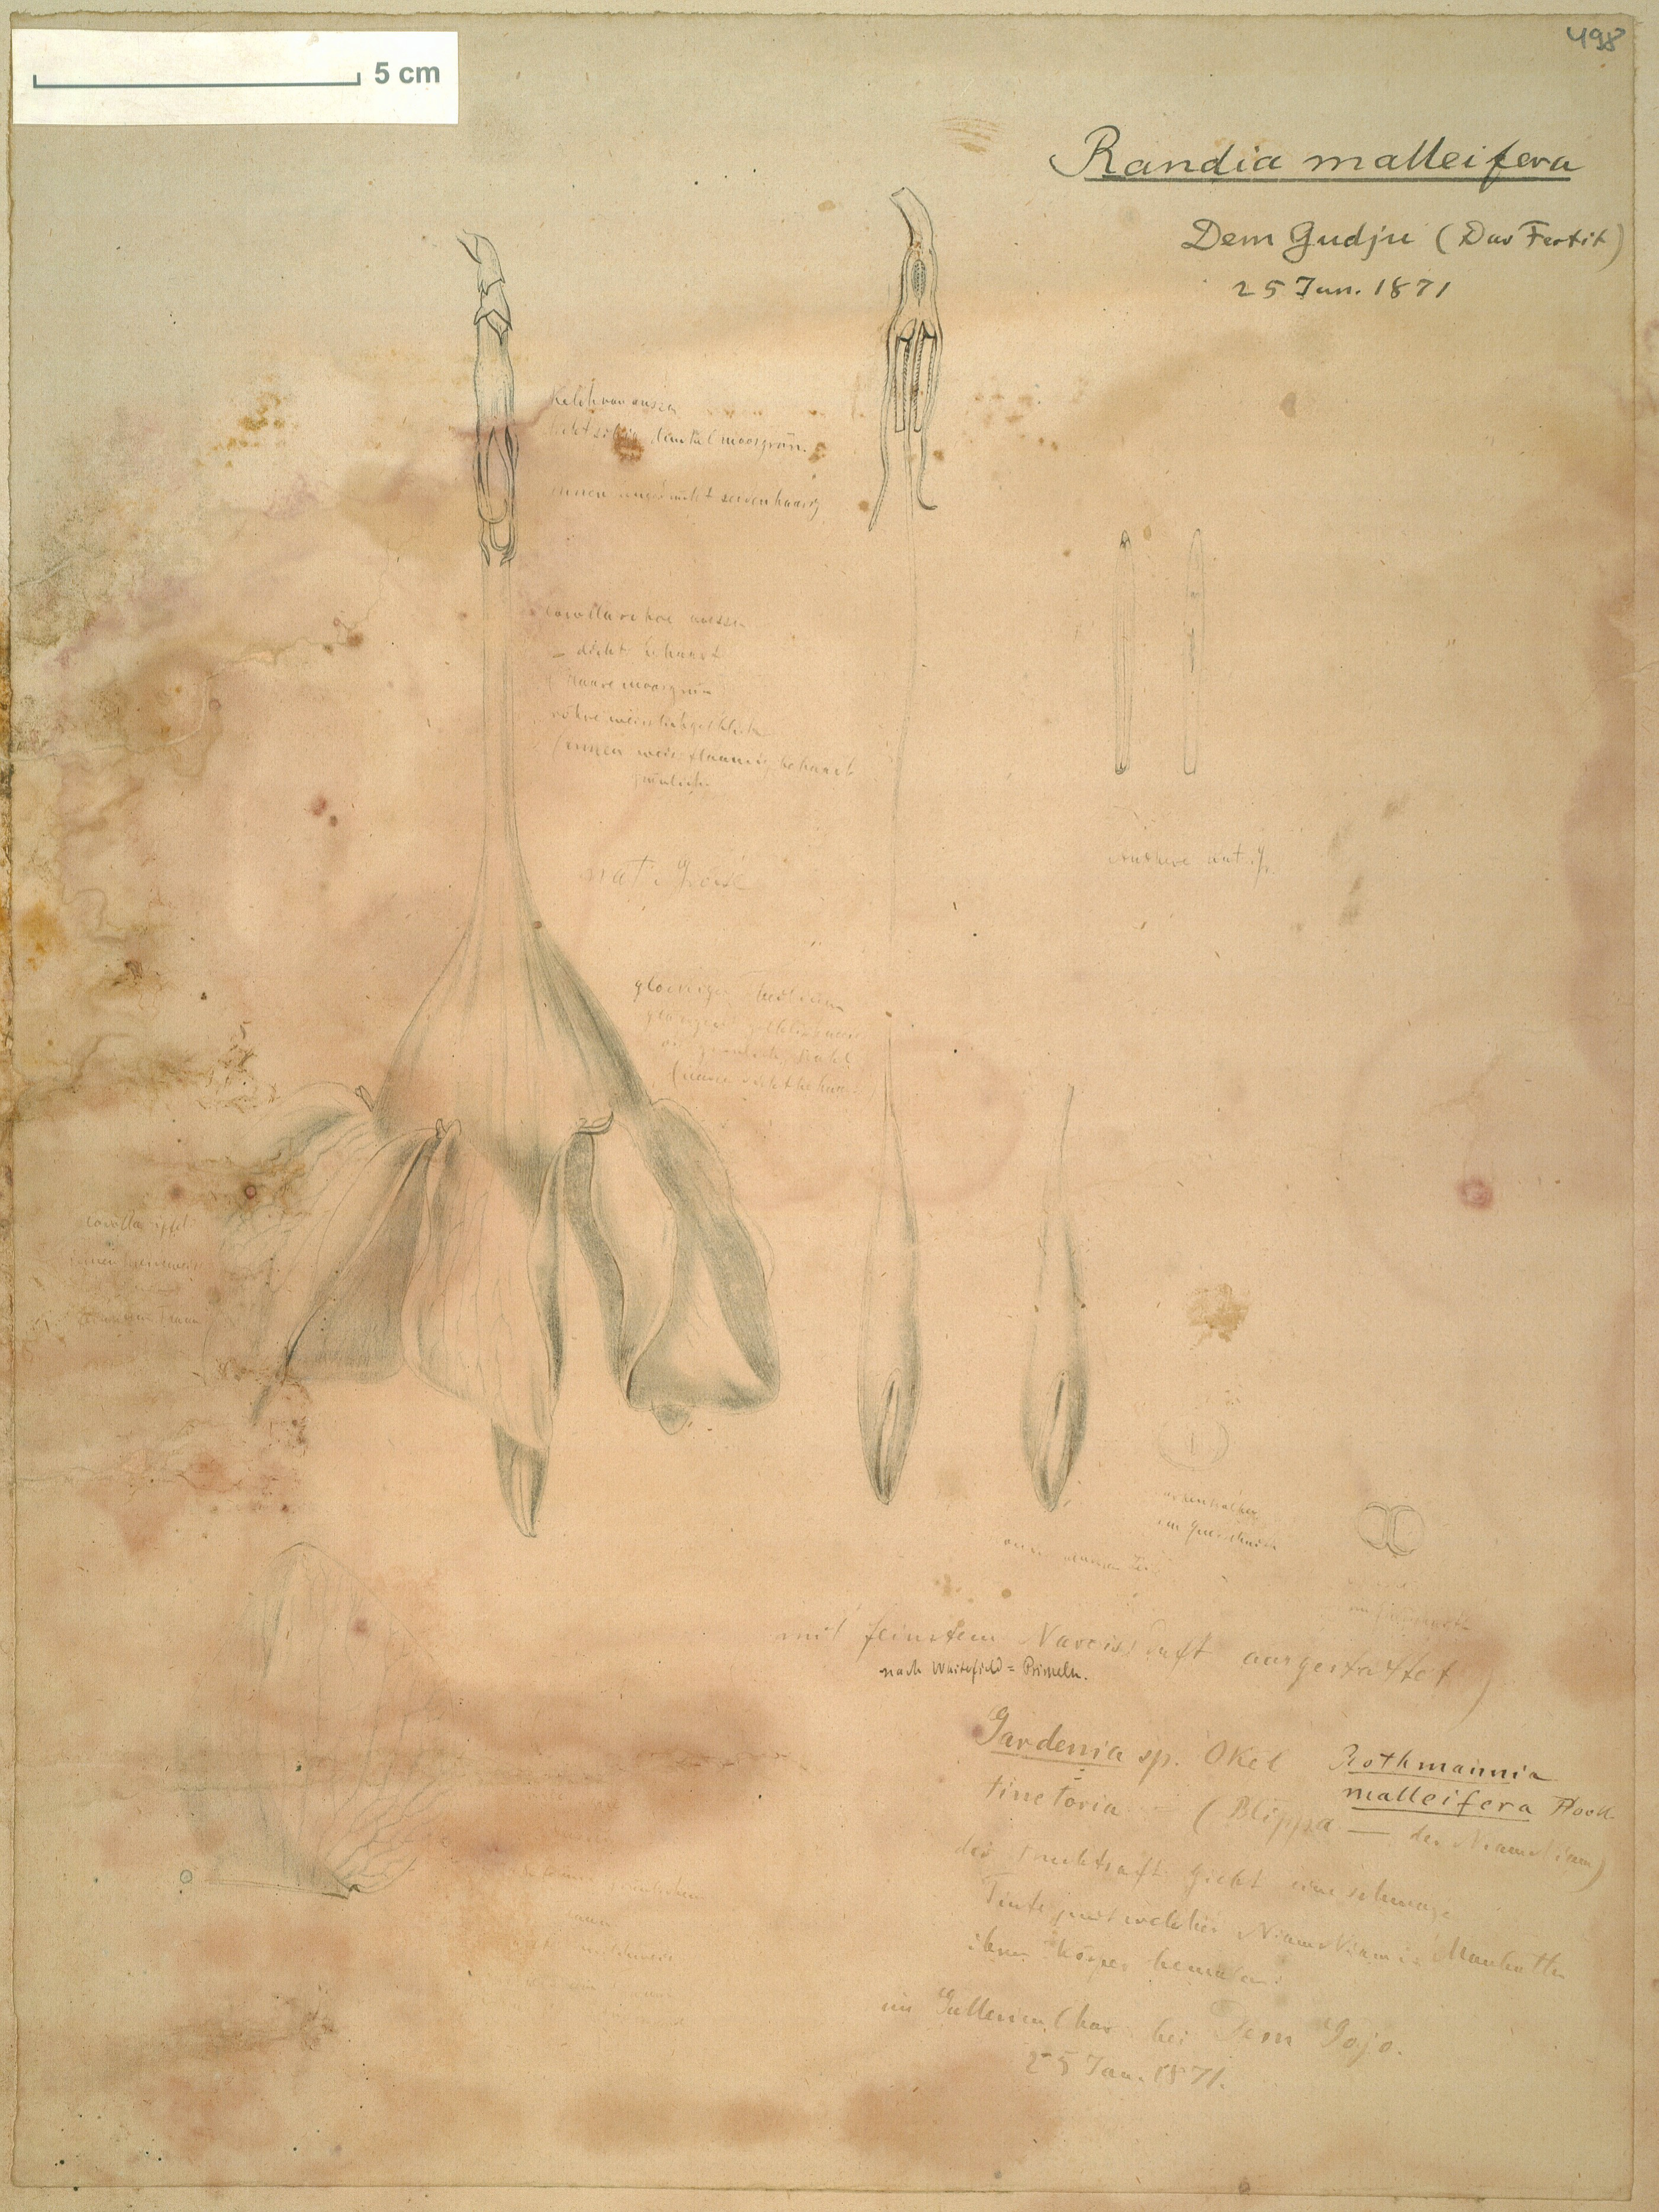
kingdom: Plantae
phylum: Tracheophyta
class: Magnoliopsida
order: Gentianales
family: Rubiaceae
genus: Rothmannia
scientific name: Rothmannia whitfieldii
